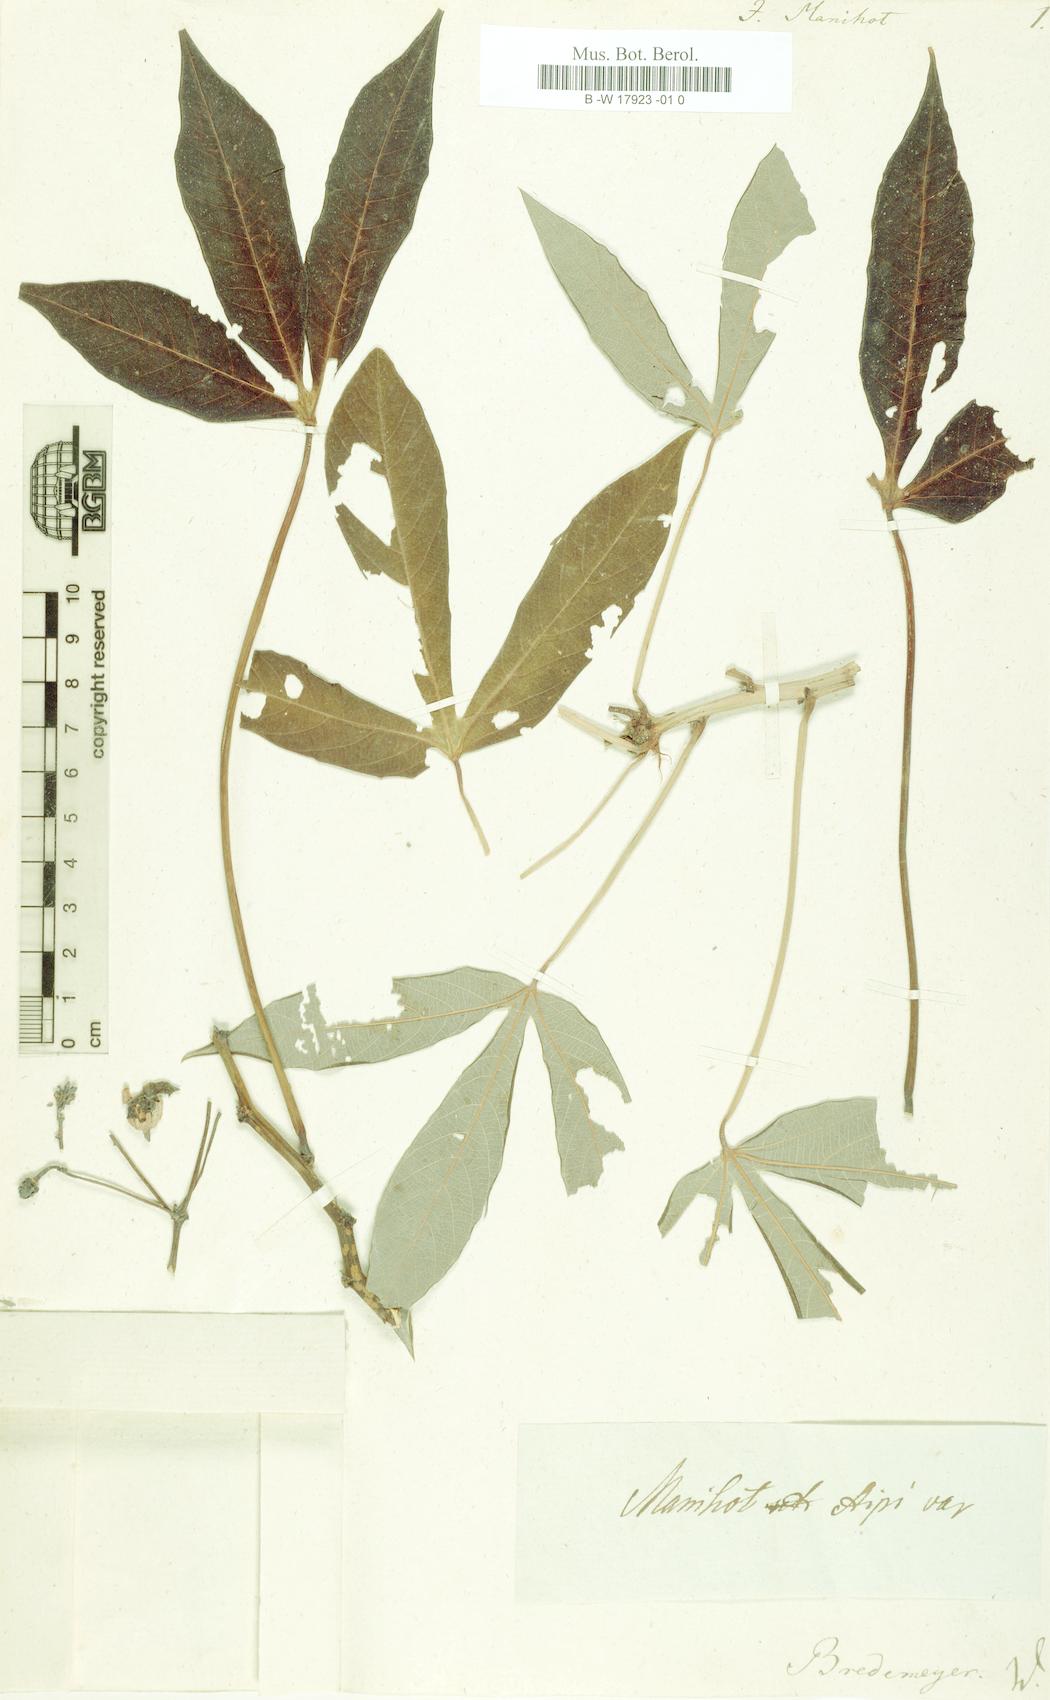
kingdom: Plantae
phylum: Tracheophyta
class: Magnoliopsida
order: Malpighiales
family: Euphorbiaceae
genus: Manihot
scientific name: Manihot esculenta
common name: Cassava
